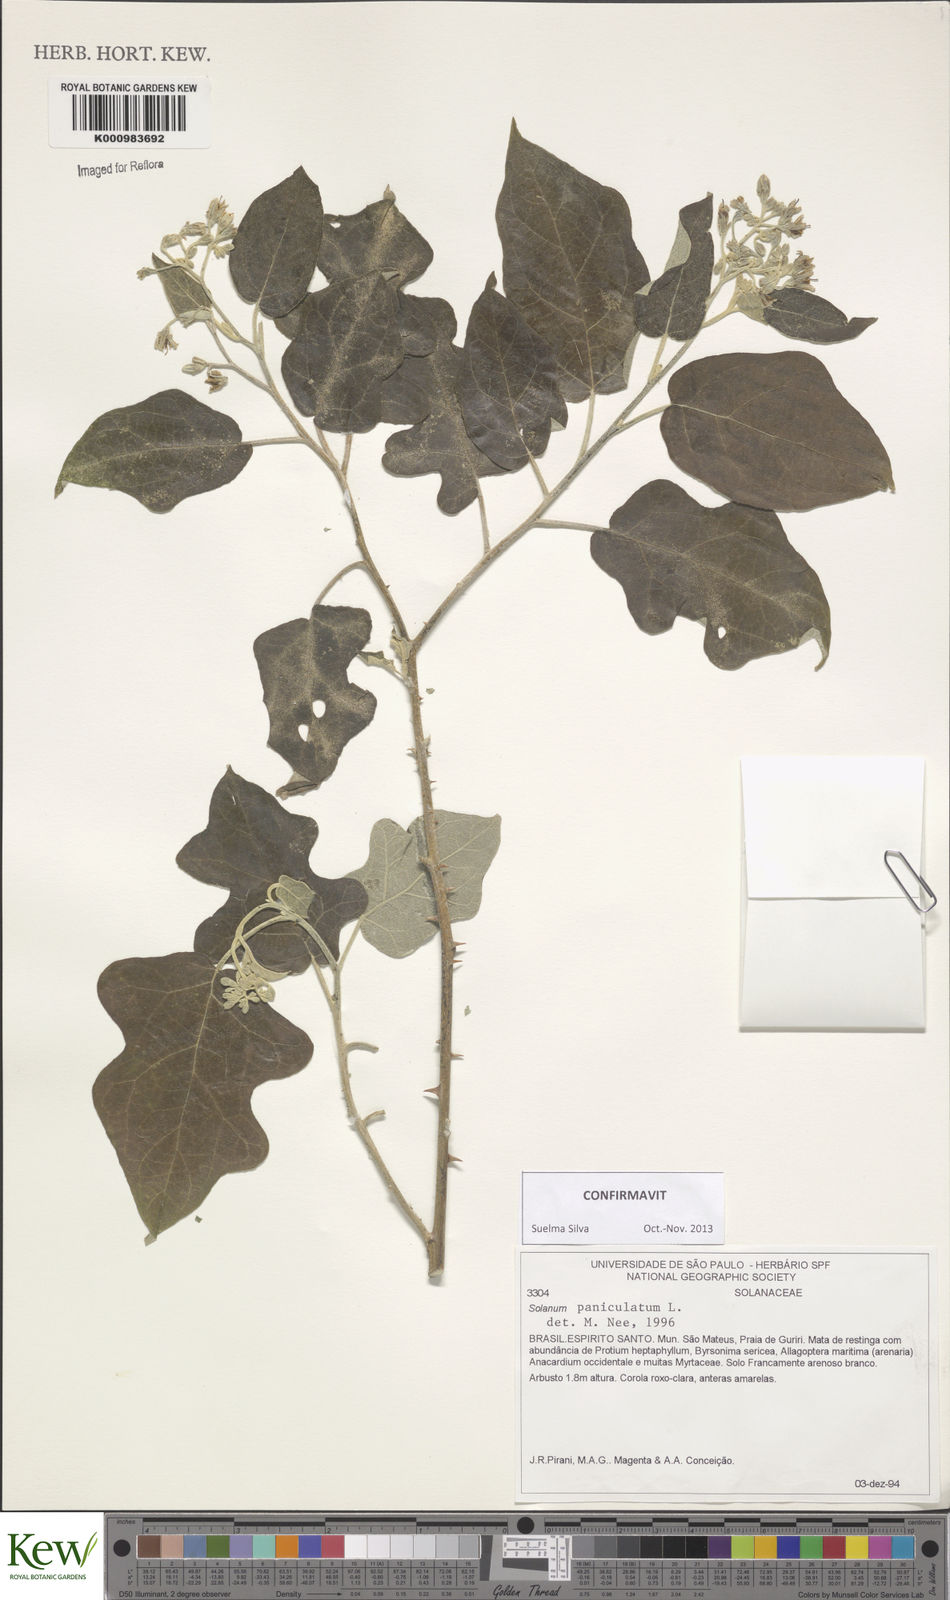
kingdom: Plantae
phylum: Tracheophyta
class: Magnoliopsida
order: Solanales
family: Solanaceae
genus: Solanum
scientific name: Solanum paniculatum
